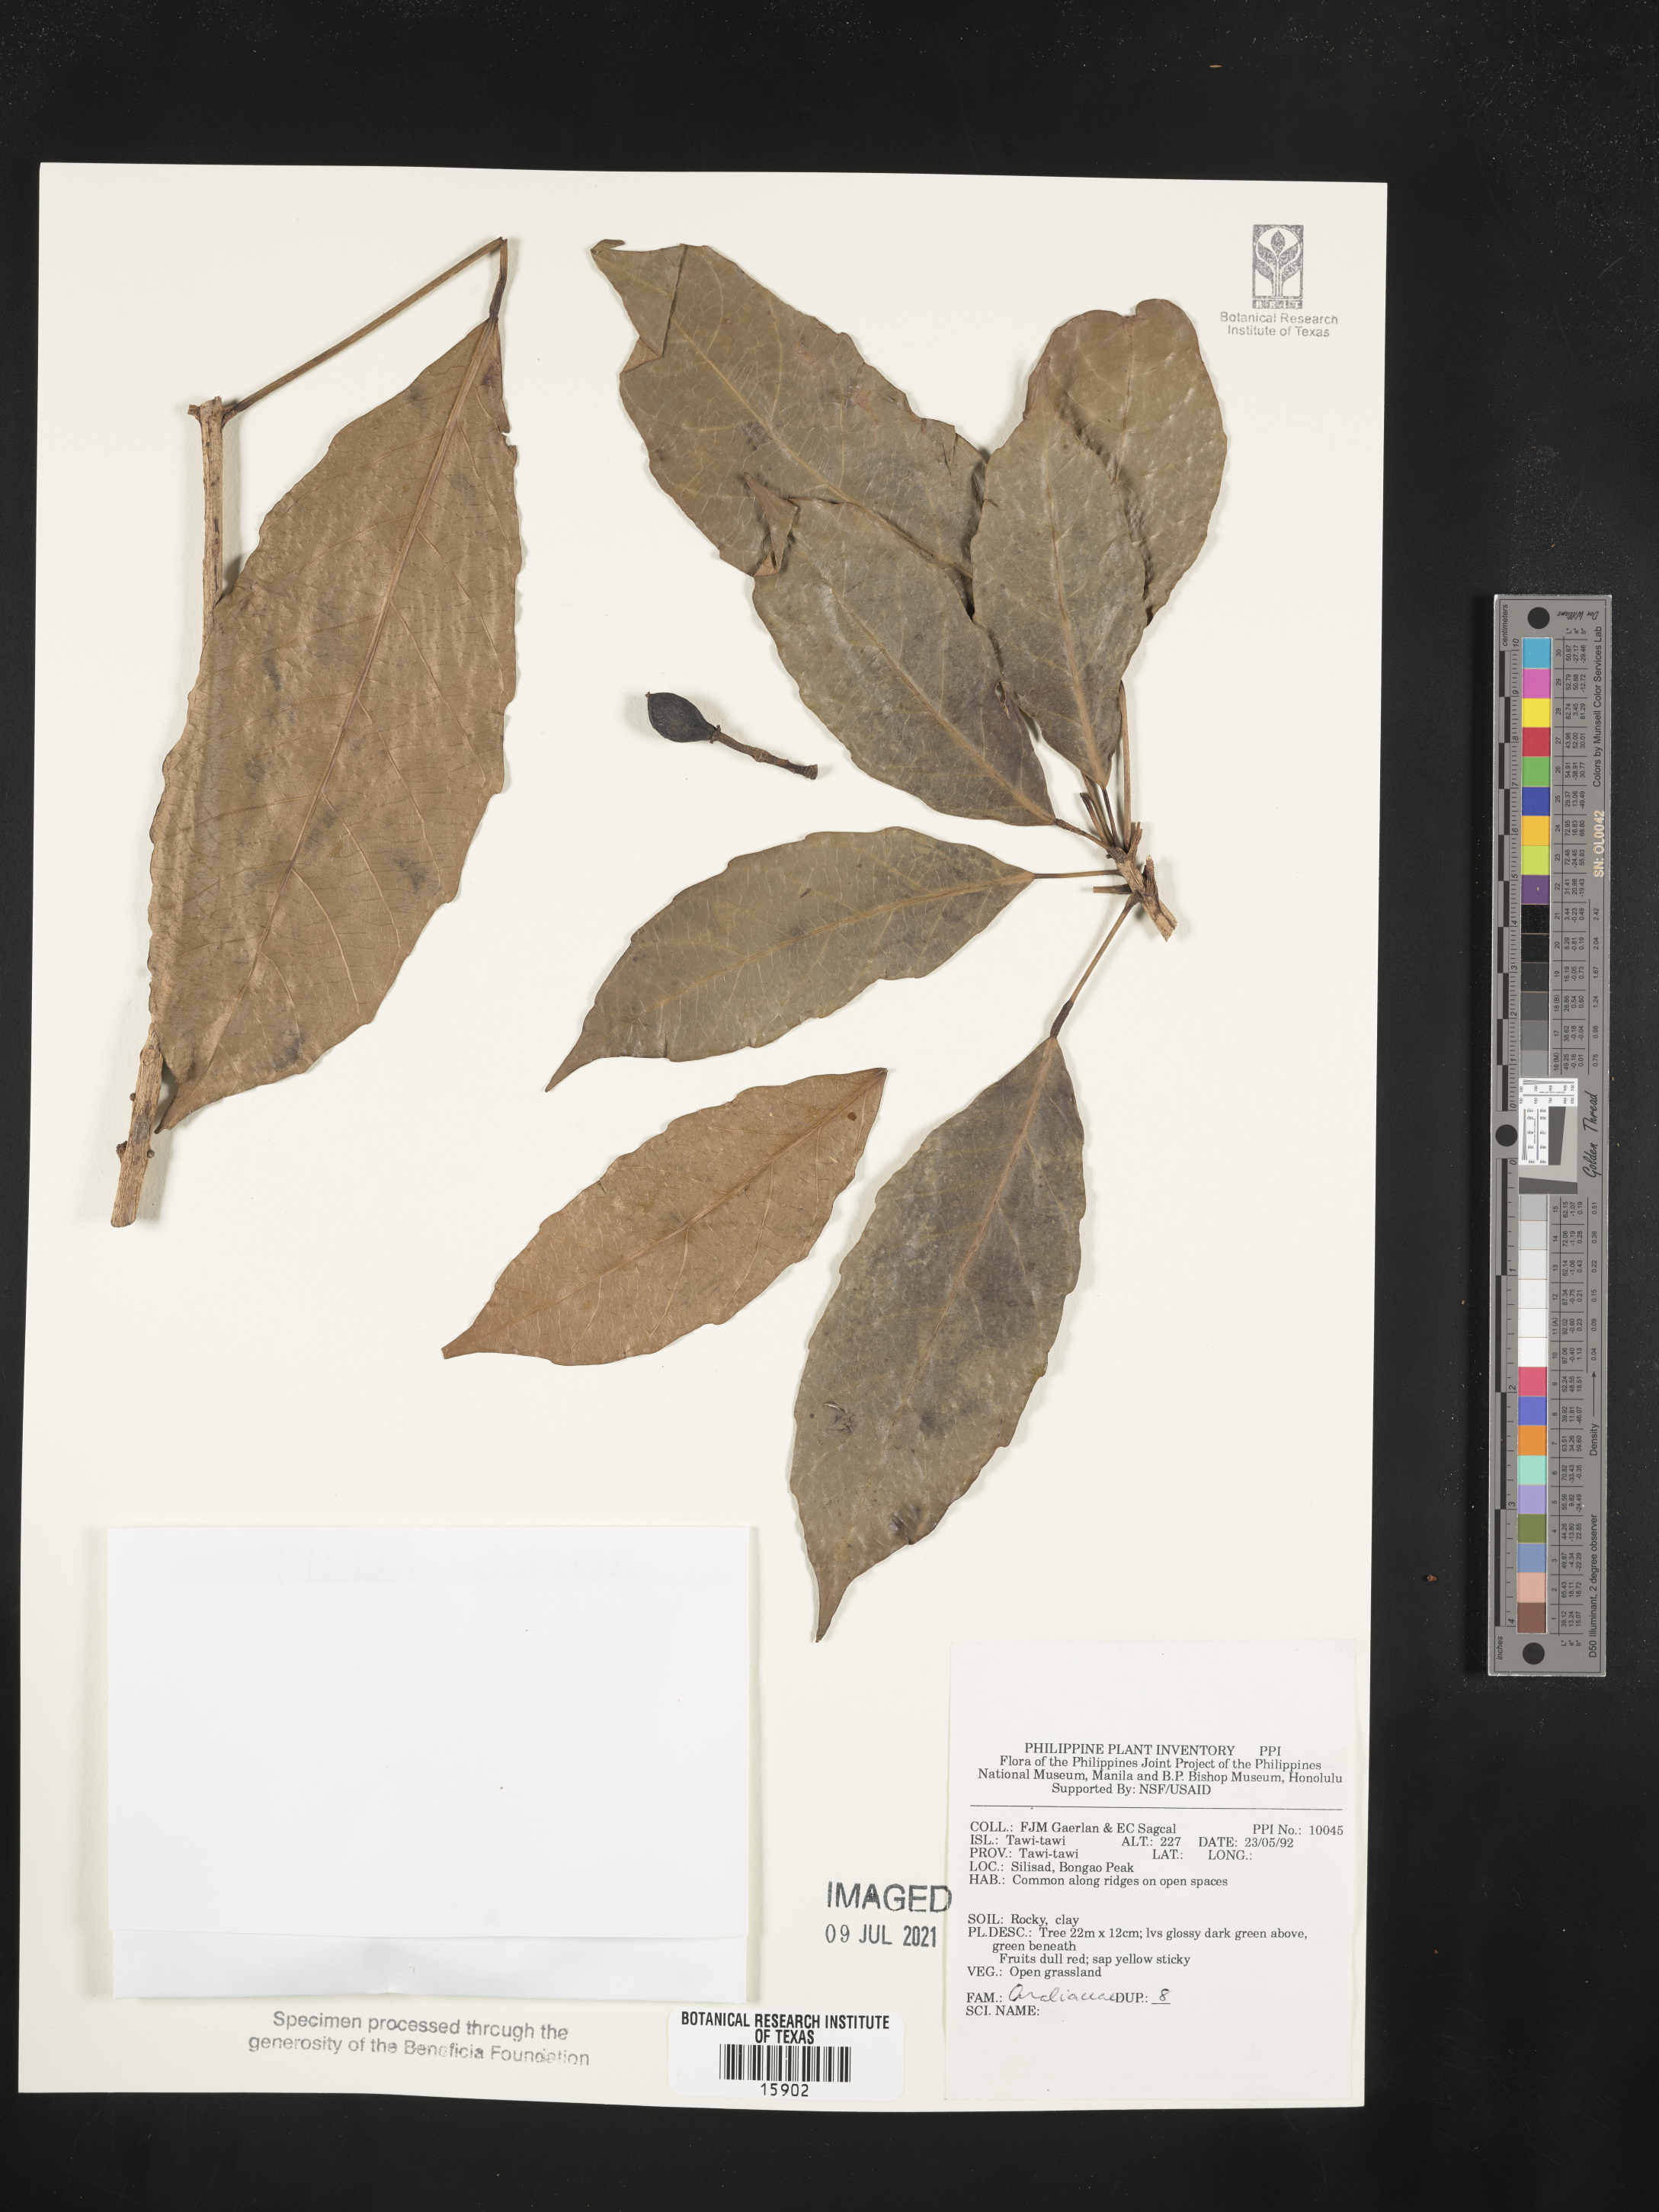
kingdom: Plantae
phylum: Tracheophyta
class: Magnoliopsida
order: Apiales
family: Araliaceae
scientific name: Araliaceae
